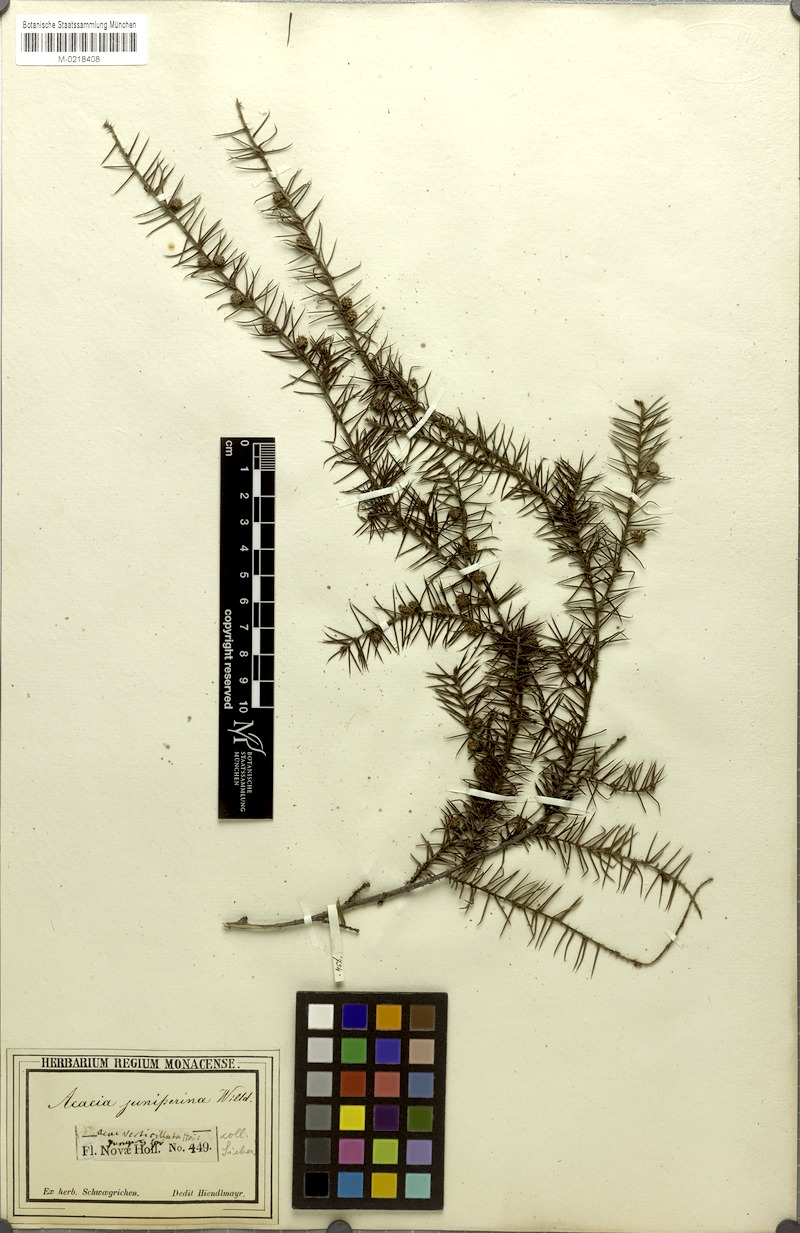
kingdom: Plantae
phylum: Tracheophyta
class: Magnoliopsida
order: Fabales
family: Fabaceae
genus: Acacia
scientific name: Acacia brownii
